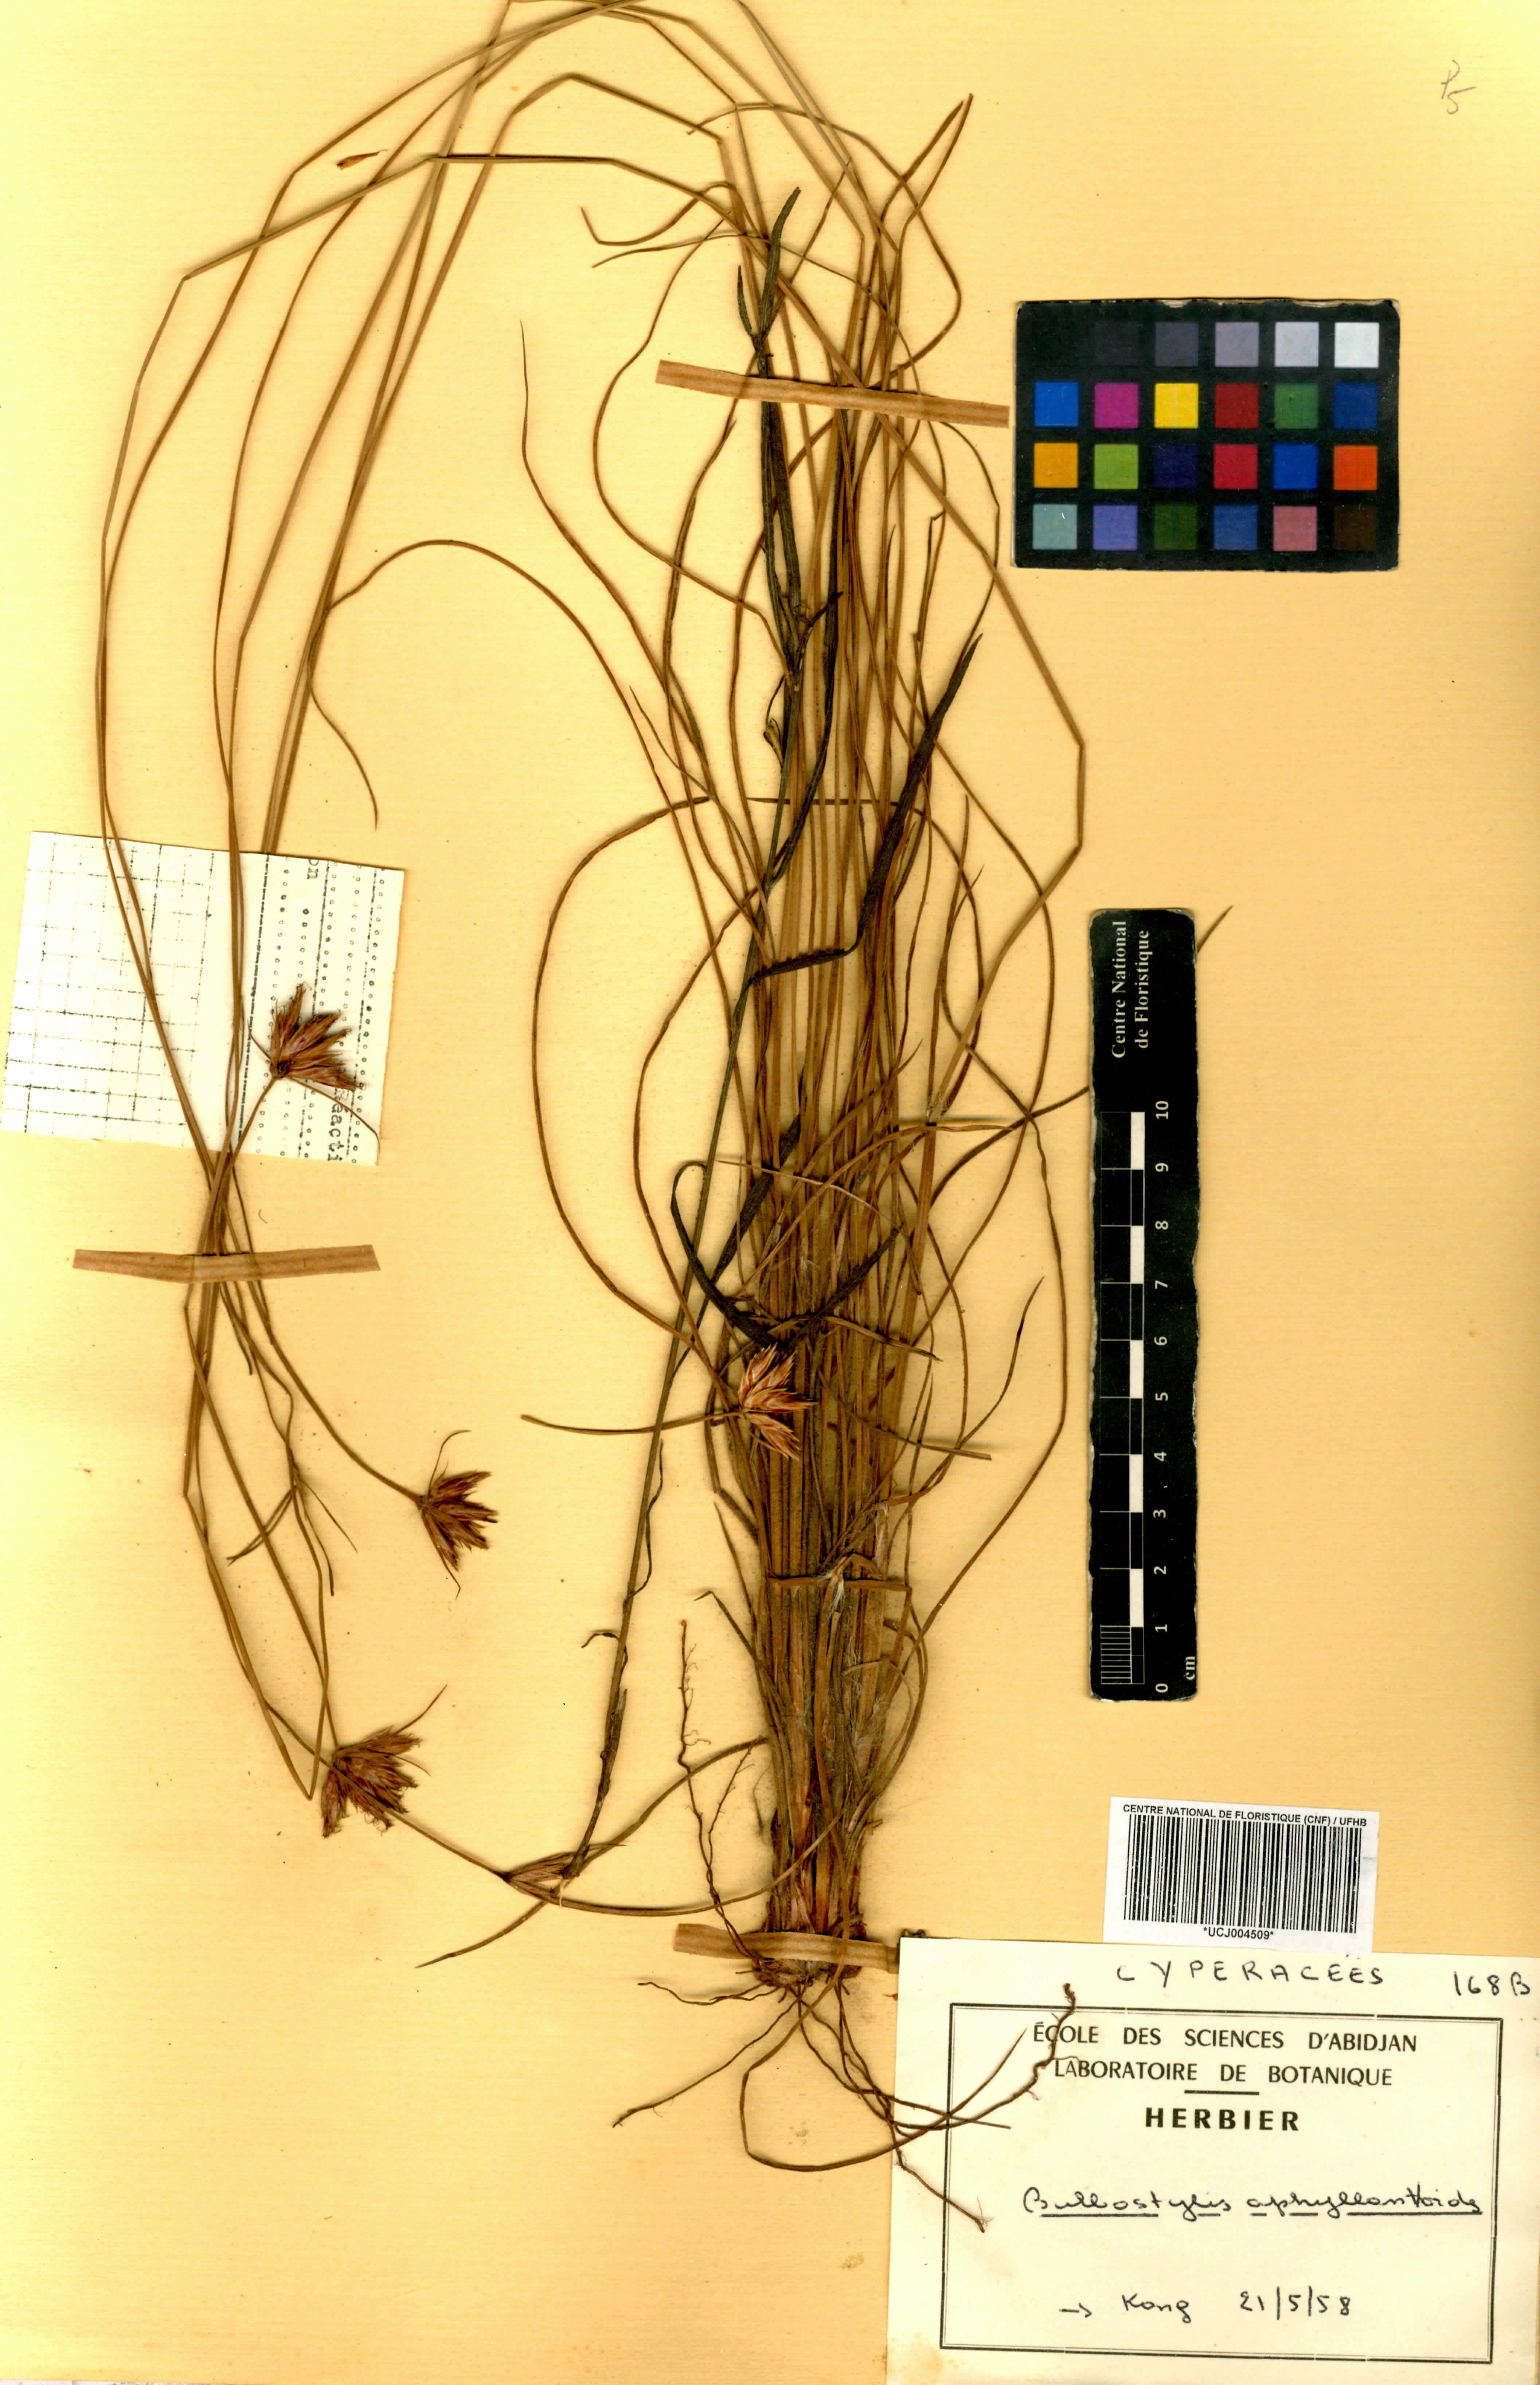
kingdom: Plantae
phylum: Tracheophyta
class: Liliopsida
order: Poales
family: Cyperaceae
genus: Bulbostylis
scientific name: Bulbostylis pilosa
